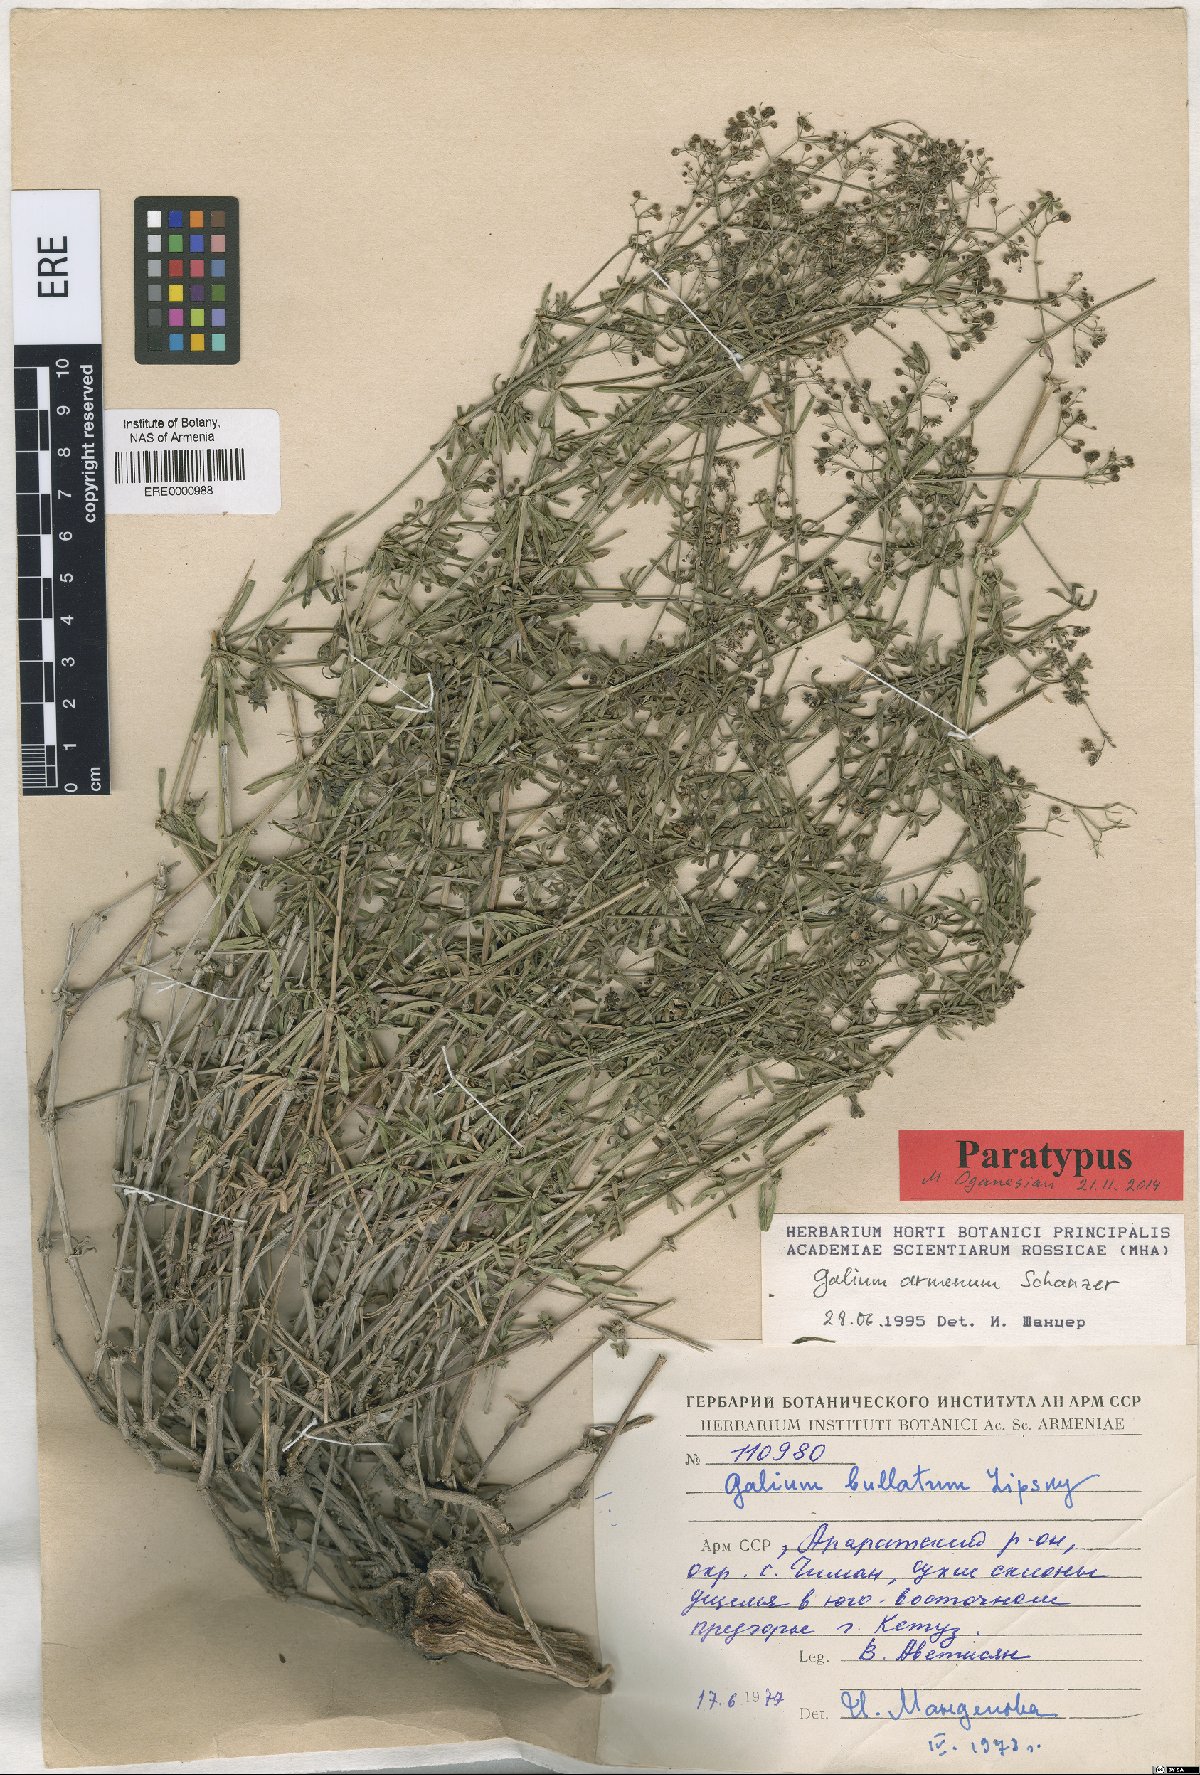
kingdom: Plantae
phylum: Tracheophyta
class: Magnoliopsida
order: Gentianales
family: Rubiaceae
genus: Galium
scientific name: Galium armenum
